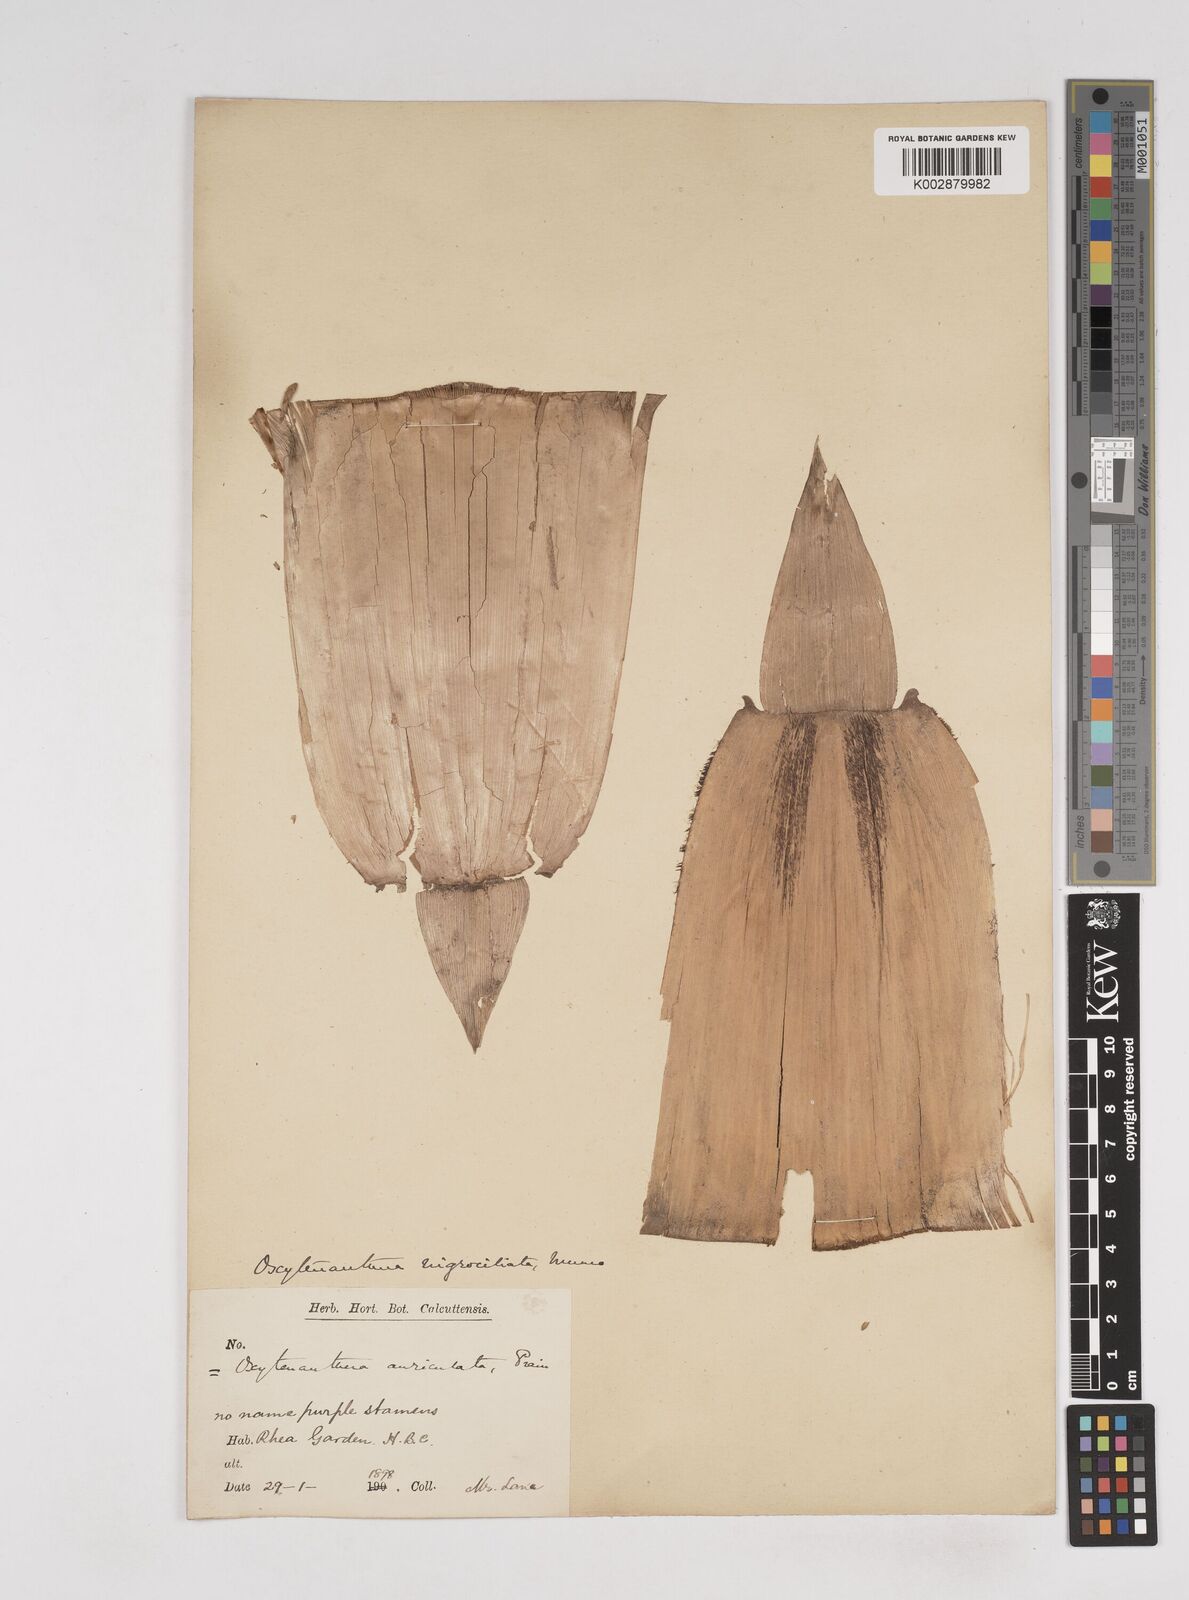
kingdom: Plantae
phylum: Tracheophyta
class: Liliopsida
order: Poales
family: Poaceae
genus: Gigantochloa
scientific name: Gigantochloa nigrociliata
